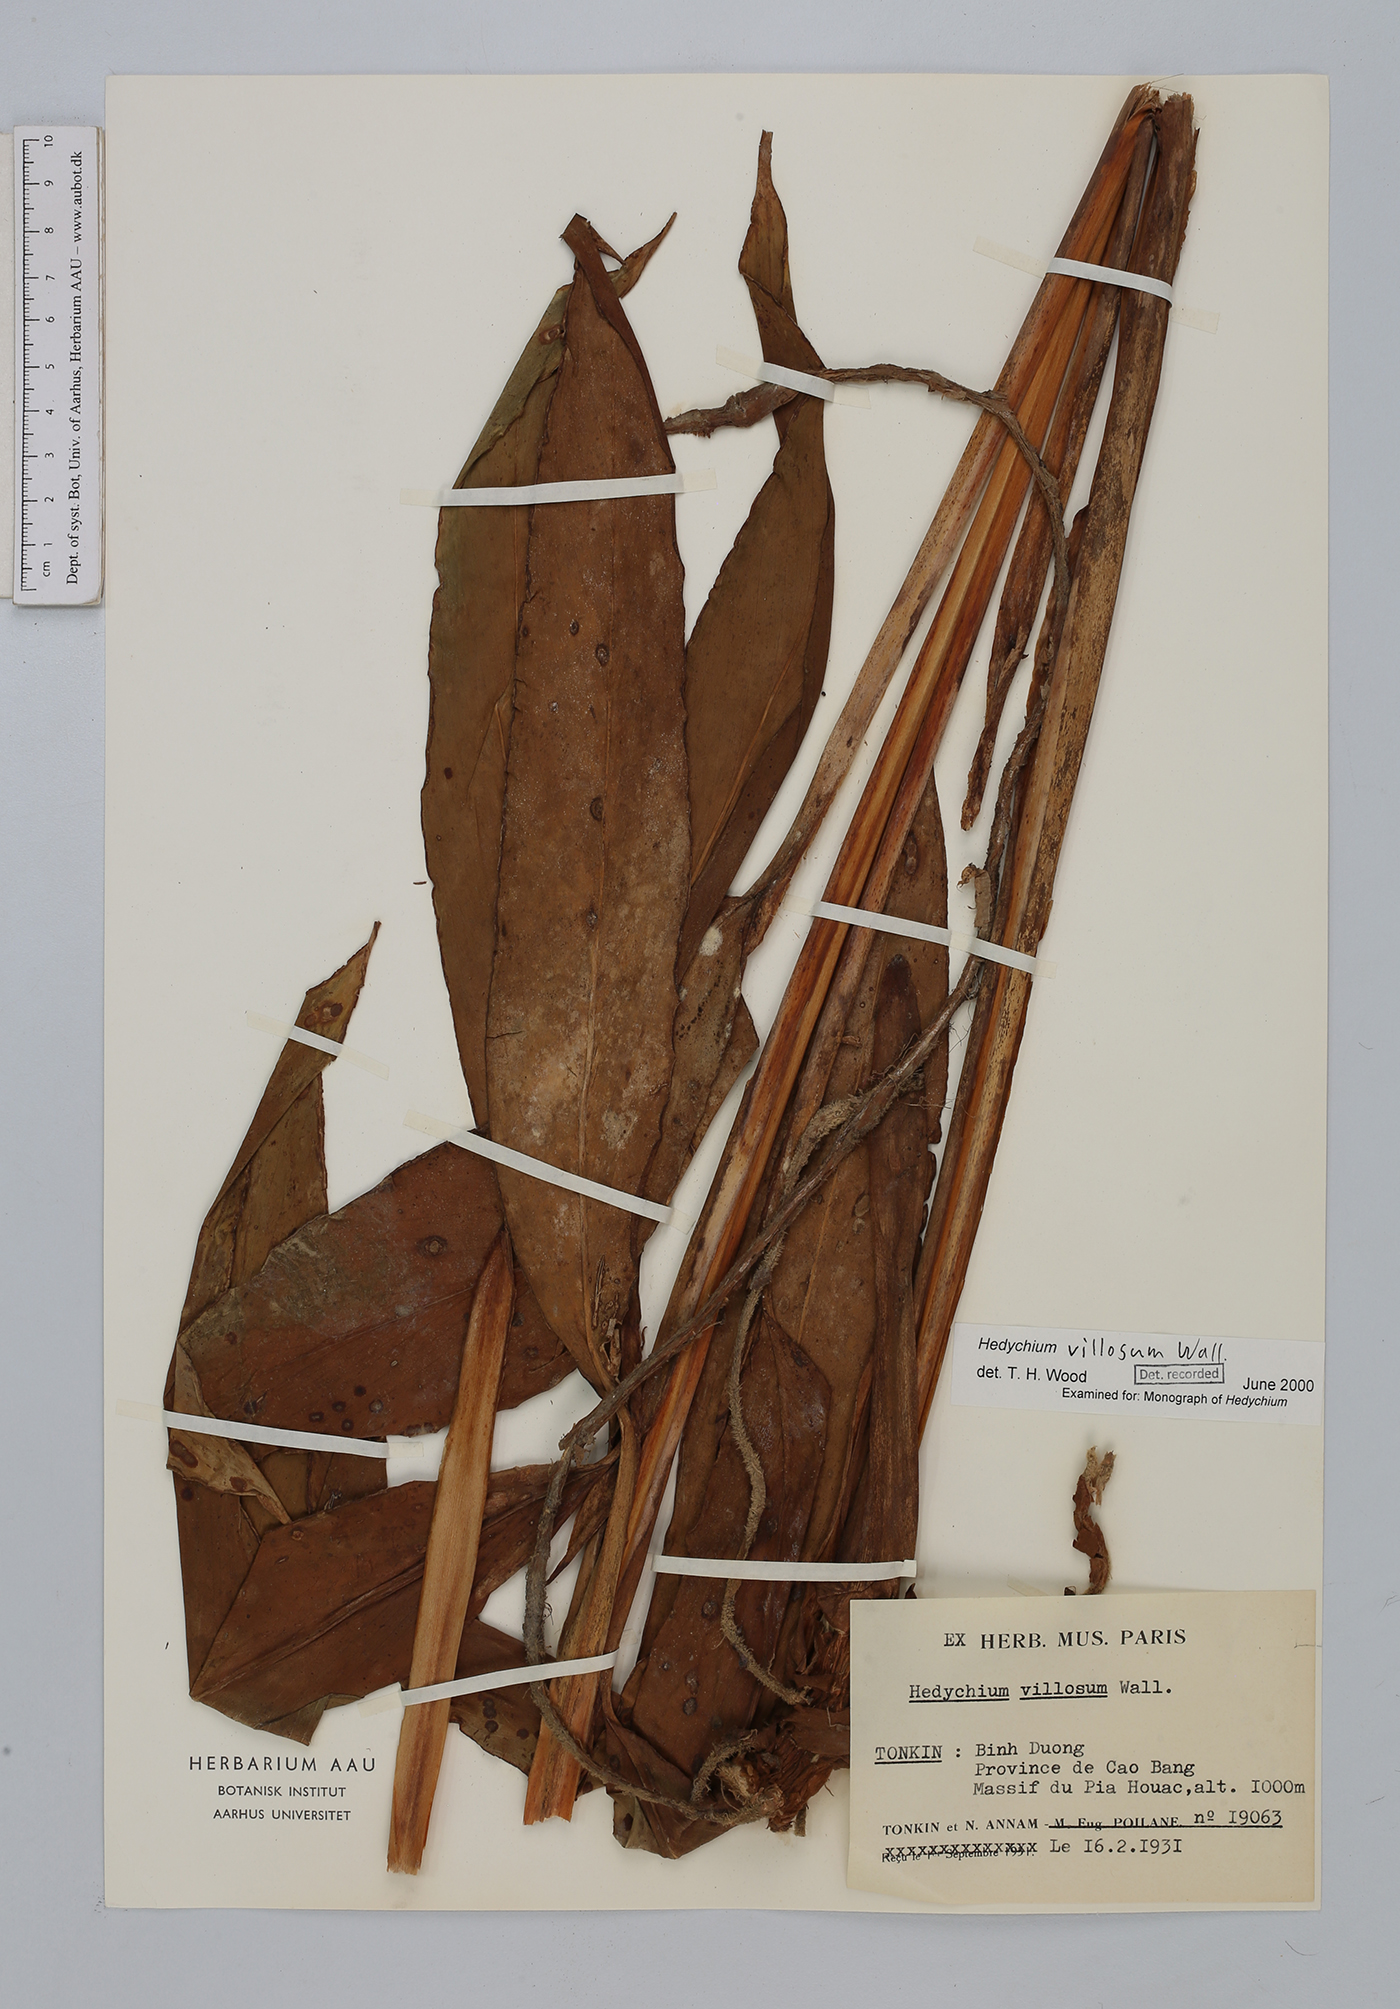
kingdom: Plantae
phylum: Tracheophyta
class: Liliopsida
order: Zingiberales
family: Zingiberaceae
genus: Hedychium
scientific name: Hedychium villosum
